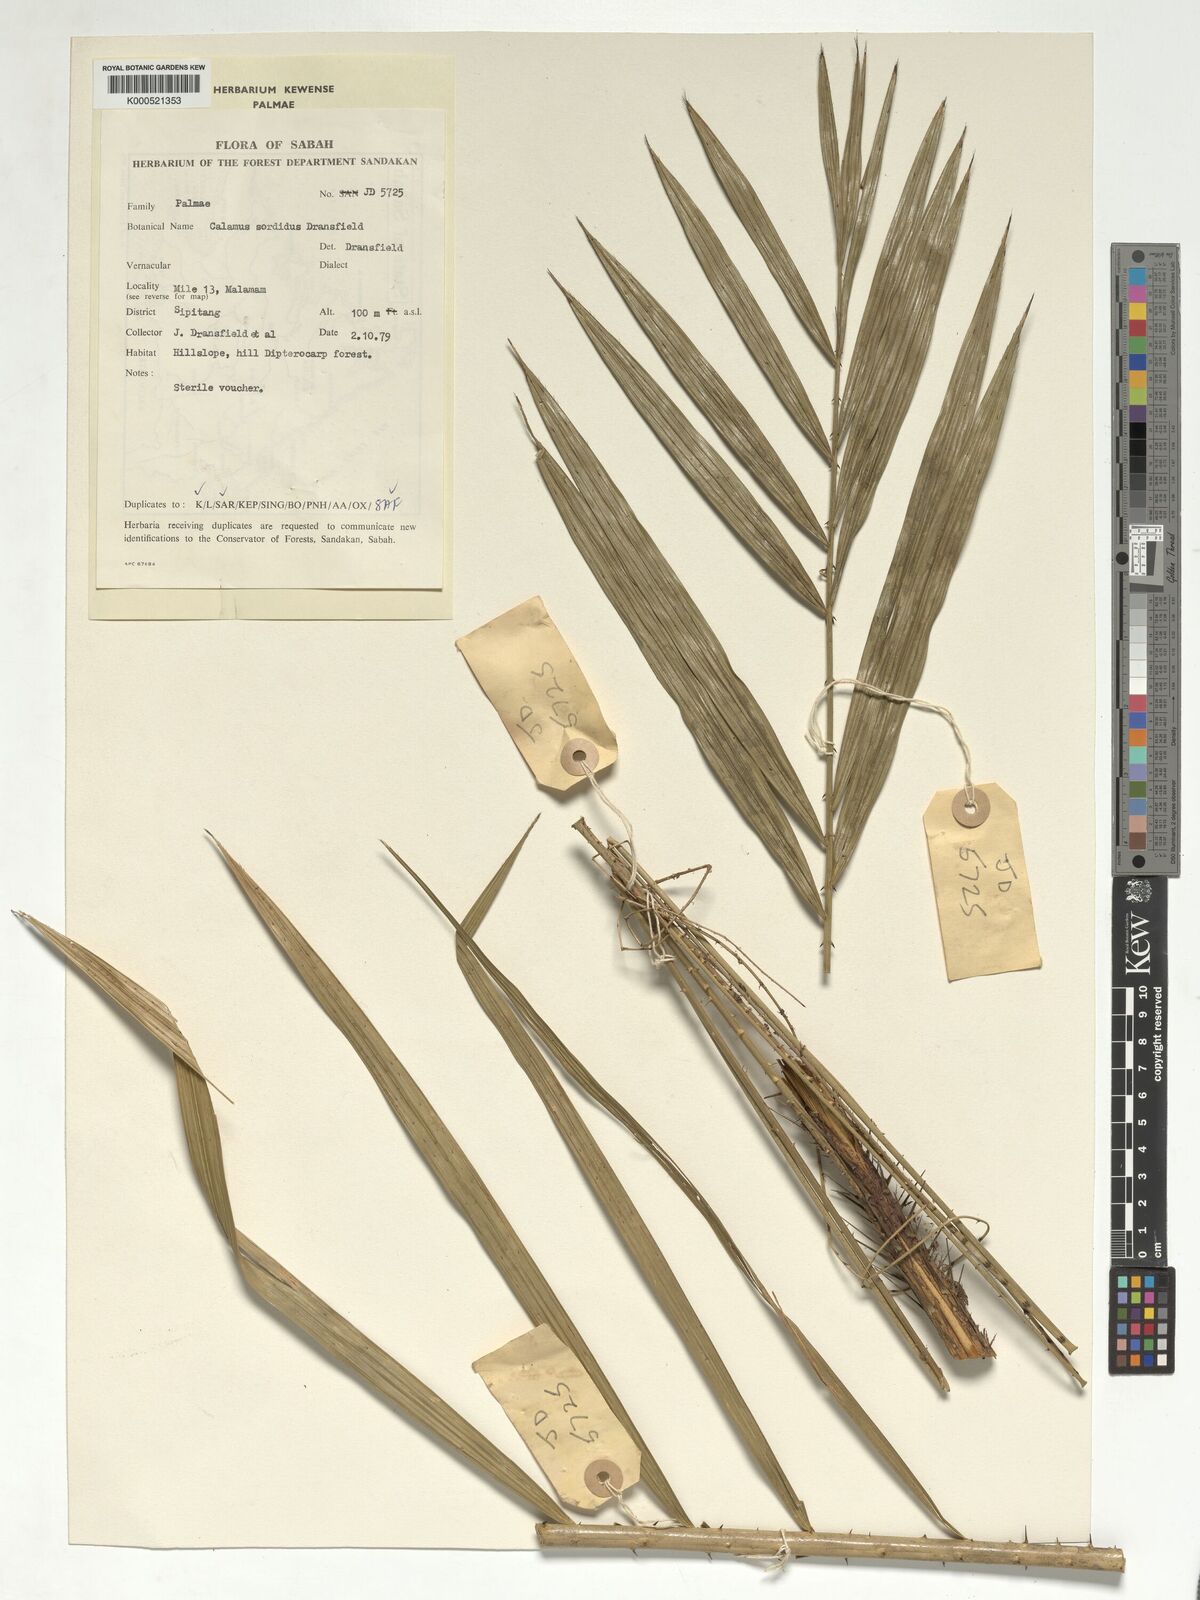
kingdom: Plantae
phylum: Tracheophyta
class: Liliopsida
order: Arecales
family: Arecaceae
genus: Calamus
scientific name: Calamus sordidus
